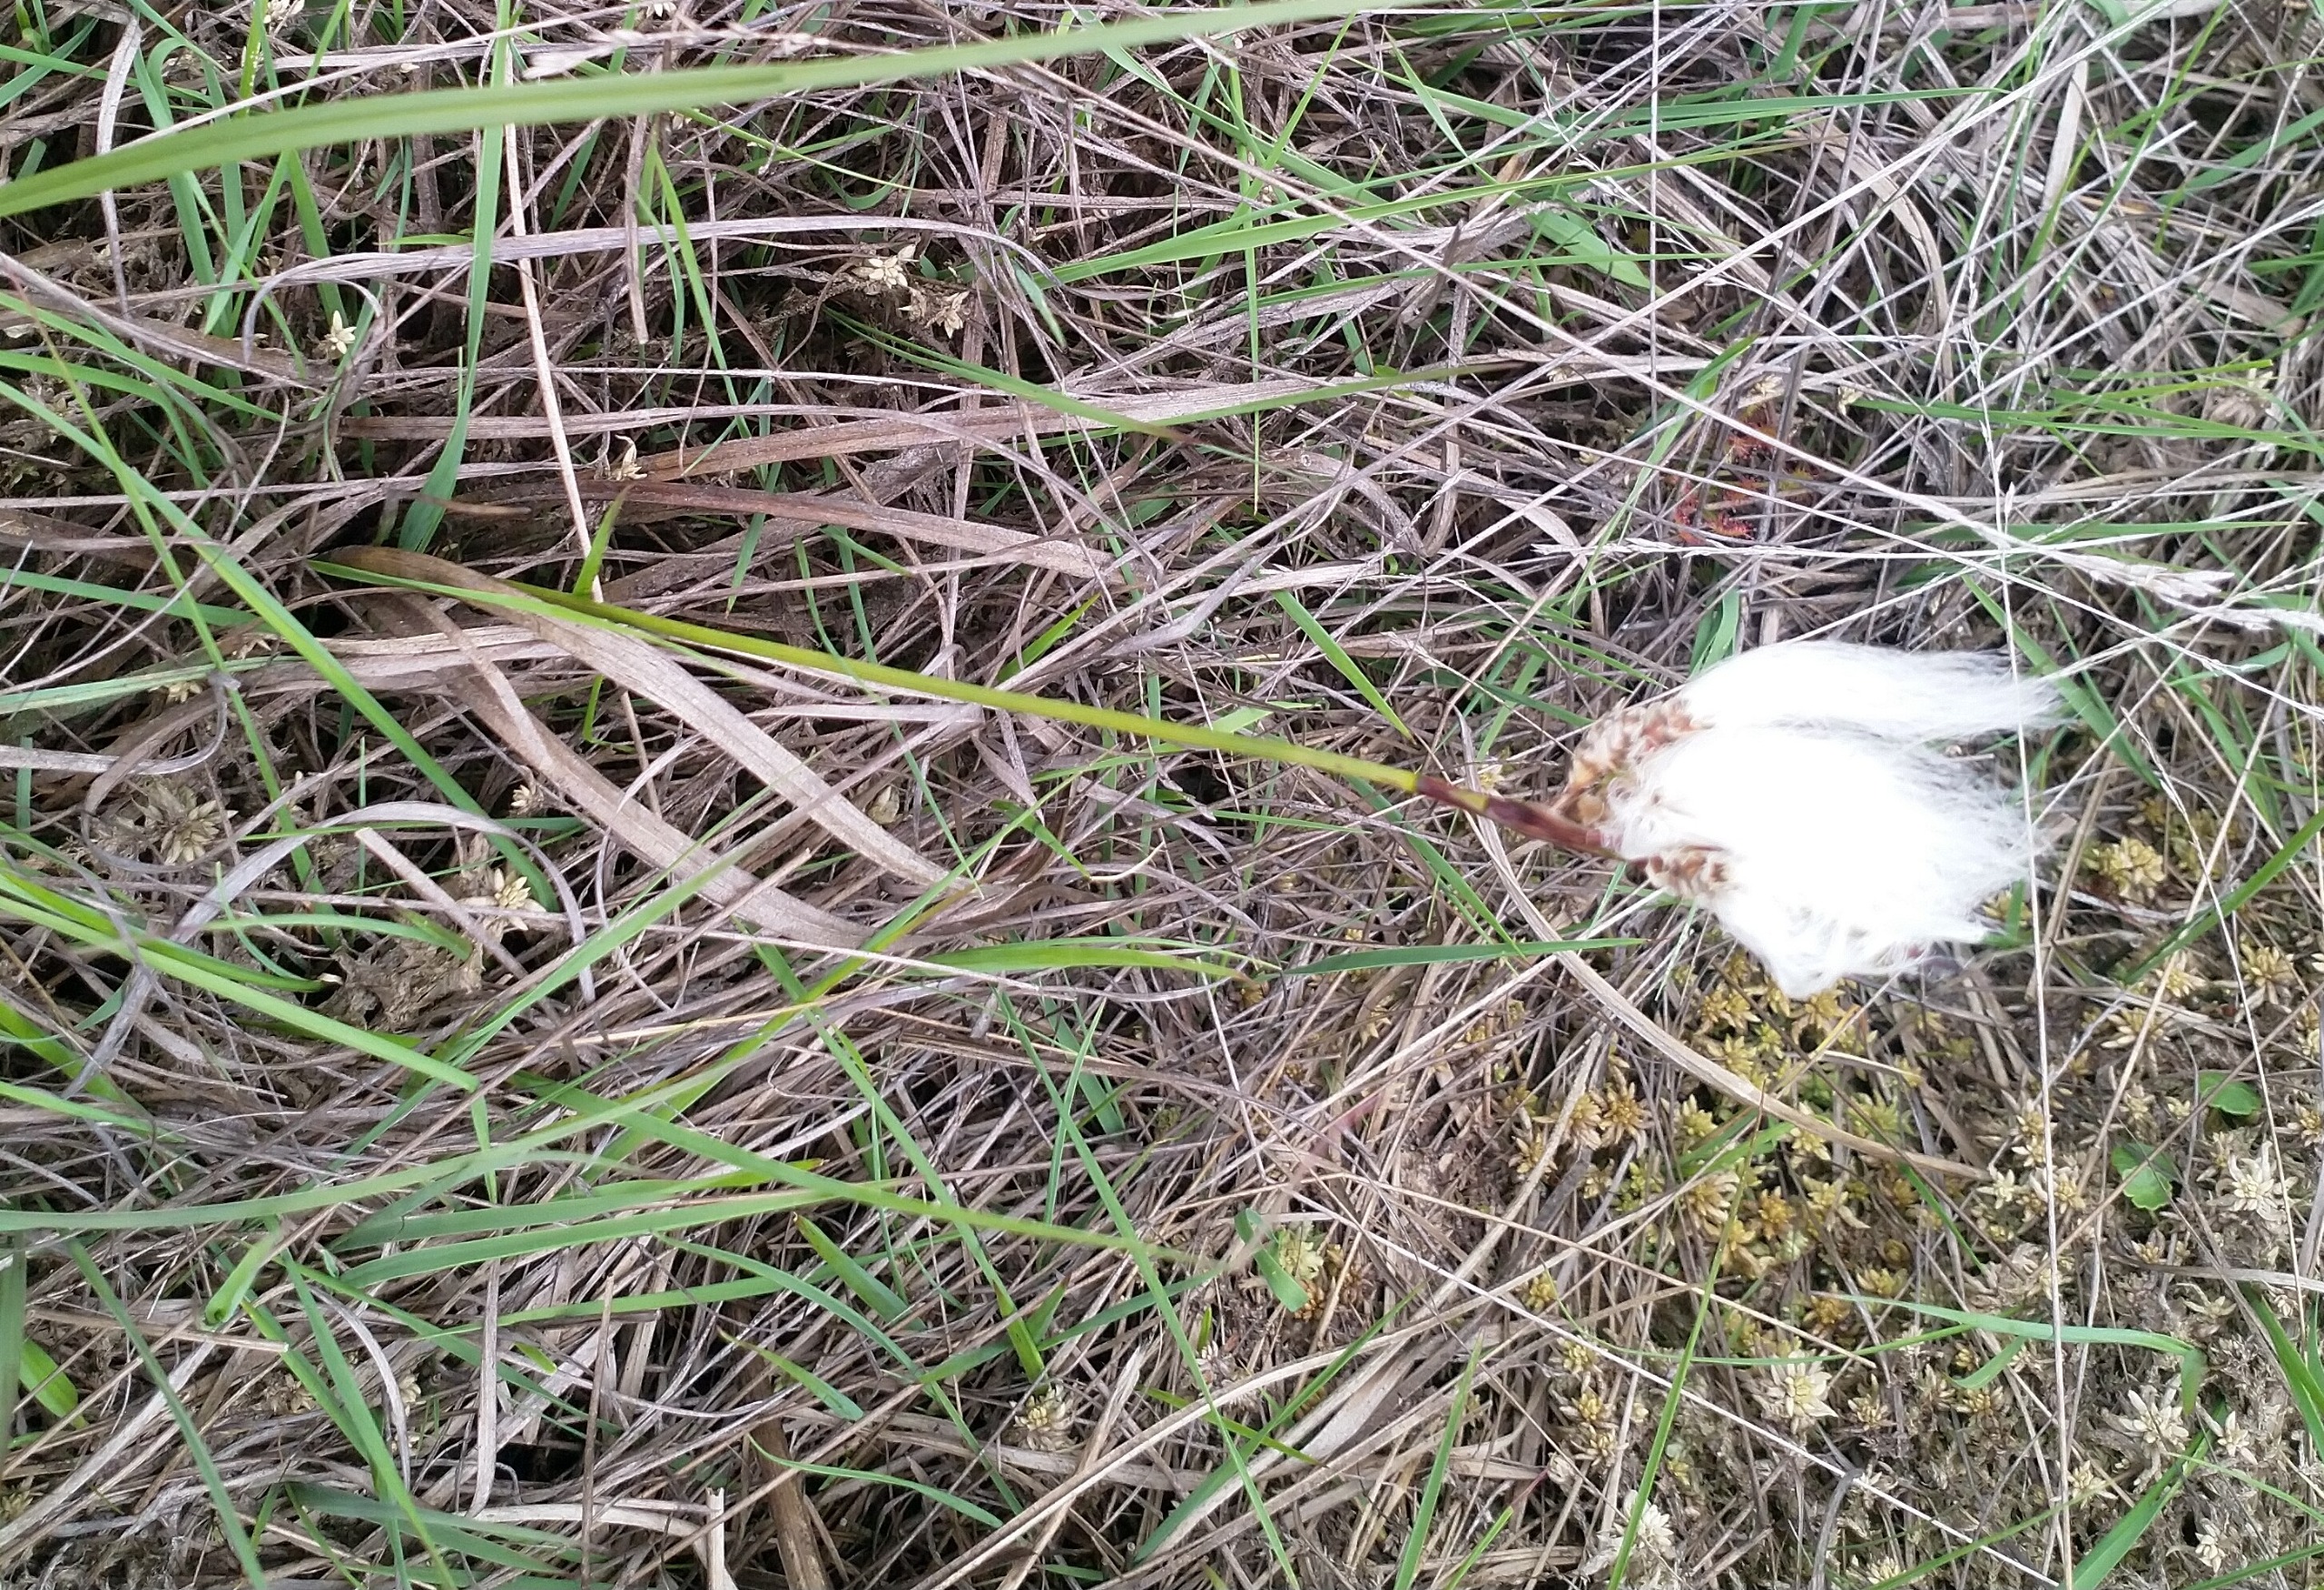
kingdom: Plantae
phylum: Tracheophyta
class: Liliopsida
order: Poales
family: Cyperaceae
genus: Eriophorum
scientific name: Eriophorum angustifolium
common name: Smalbladet kæruld
